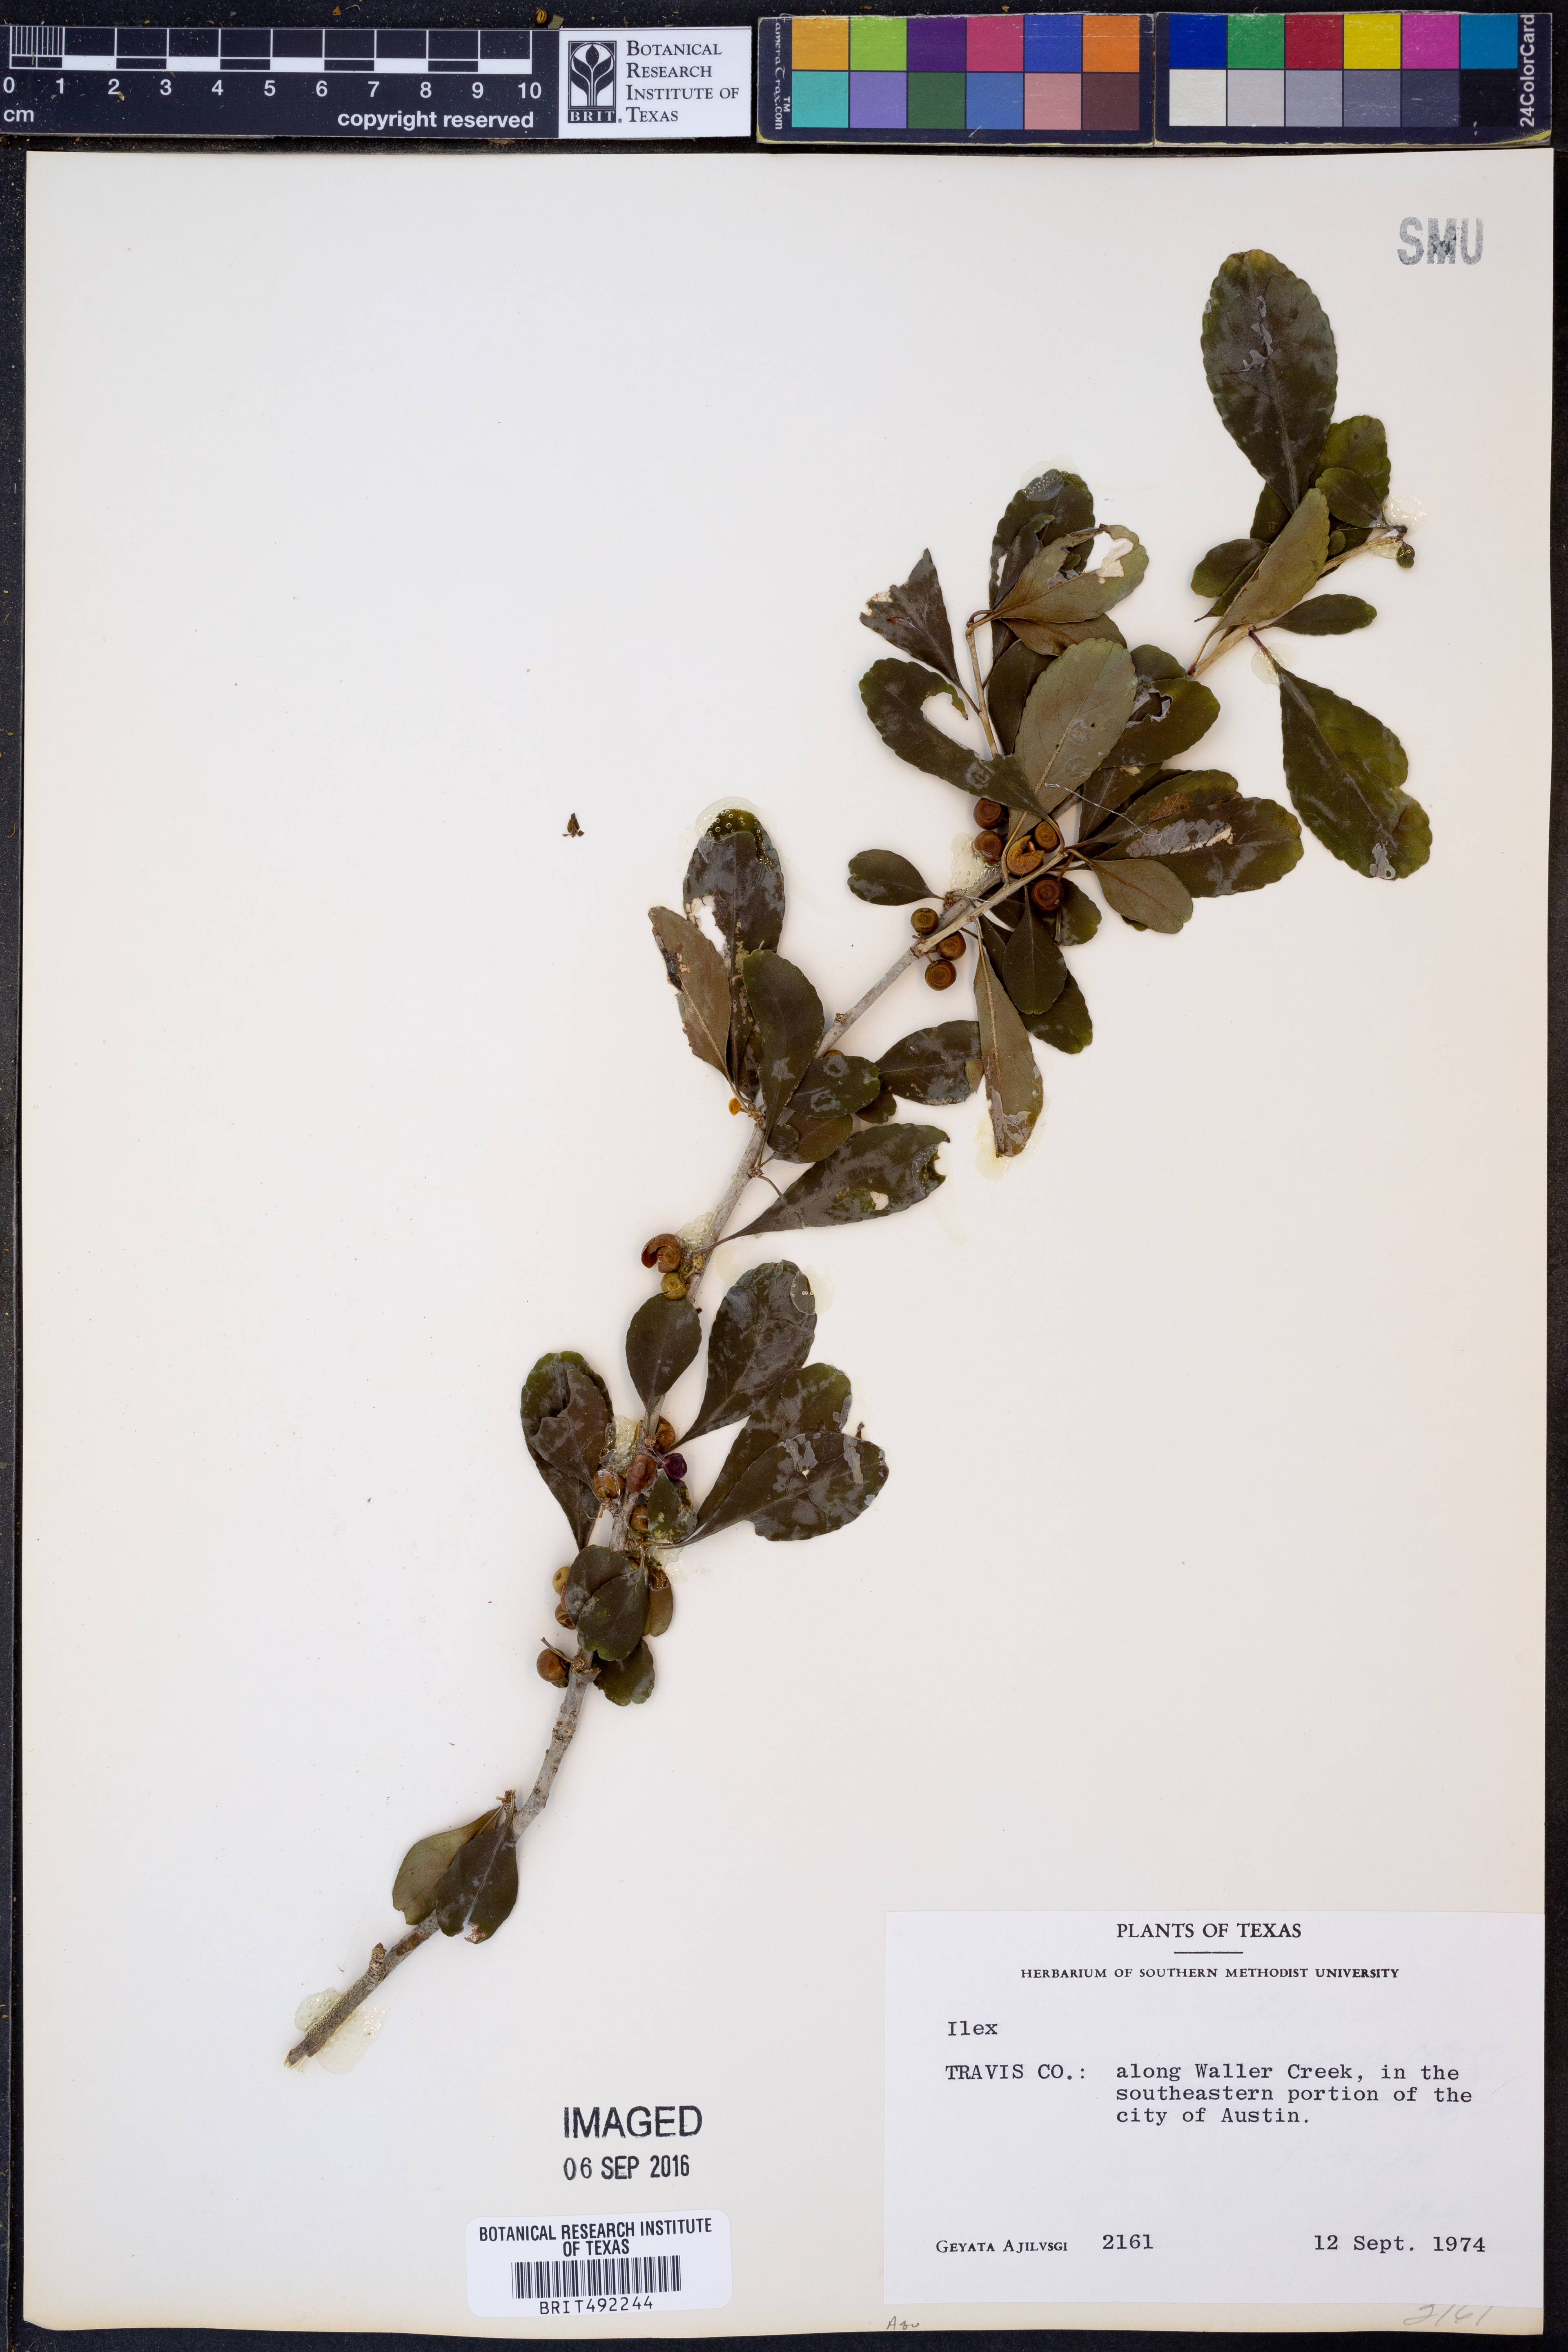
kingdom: Plantae
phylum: Tracheophyta
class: Magnoliopsida
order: Aquifoliales
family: Aquifoliaceae
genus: Ilex
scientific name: Ilex
